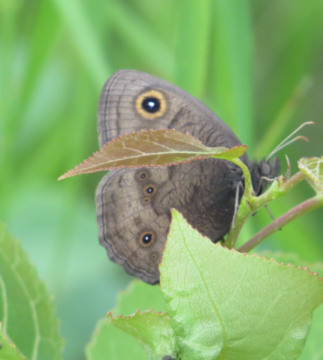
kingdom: Animalia
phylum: Arthropoda
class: Insecta
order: Lepidoptera
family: Nymphalidae
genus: Cercyonis
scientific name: Cercyonis pegala
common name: Common Wood-Nymph
